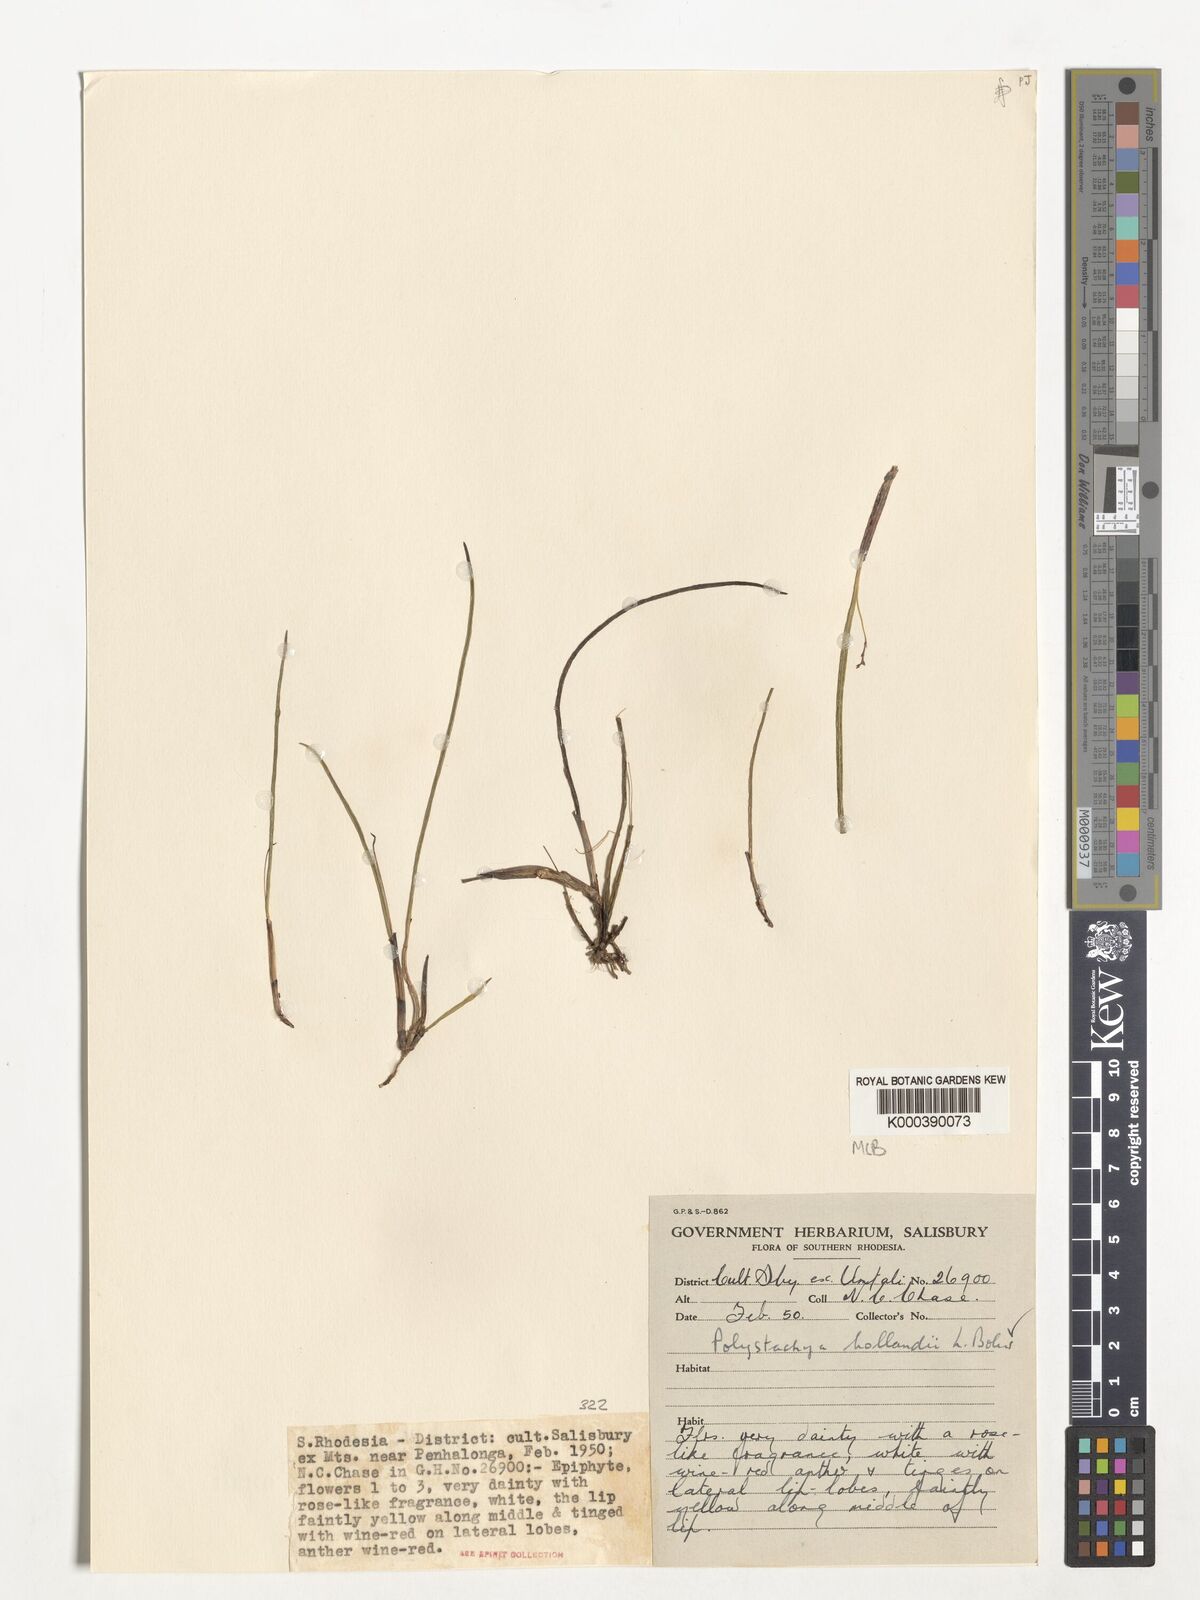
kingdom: Plantae
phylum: Tracheophyta
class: Liliopsida
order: Asparagales
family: Orchidaceae
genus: Polystachya
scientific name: Polystachya caespitifica
